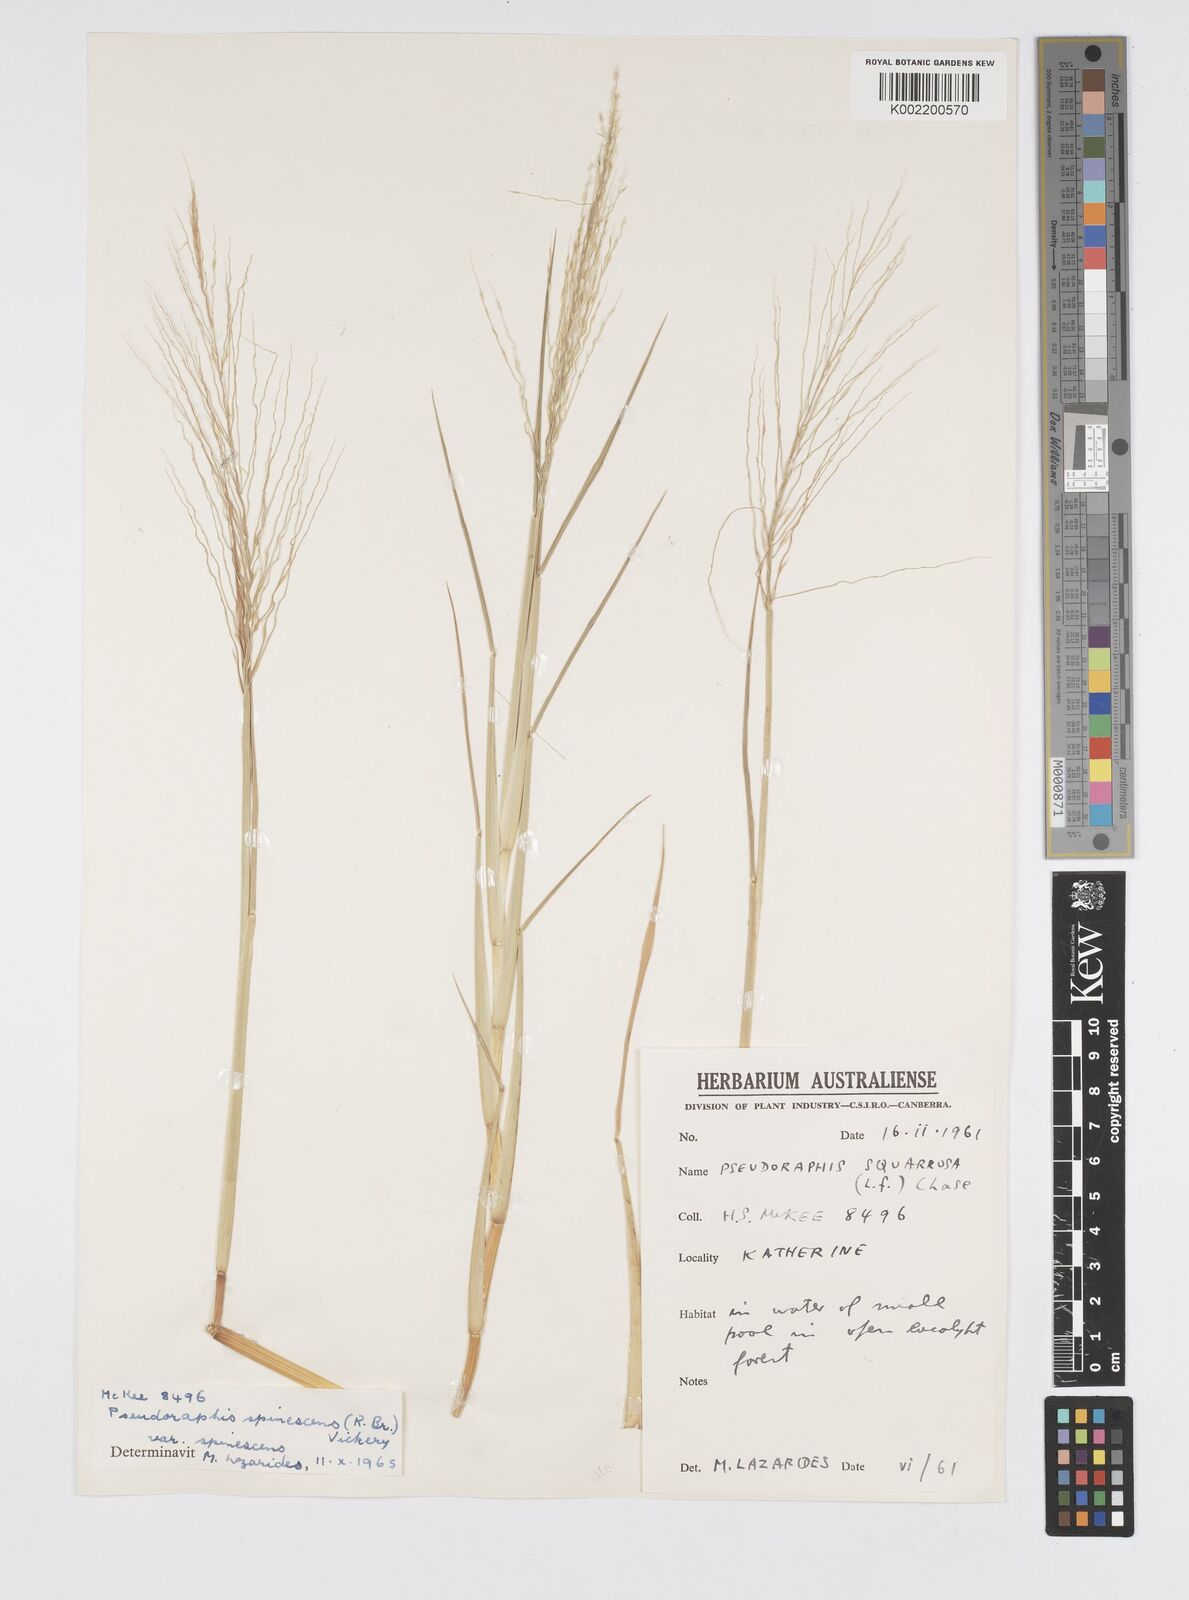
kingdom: Plantae
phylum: Tracheophyta
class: Liliopsida
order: Poales
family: Poaceae
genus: Pseudoraphis
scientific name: Pseudoraphis spinescens
